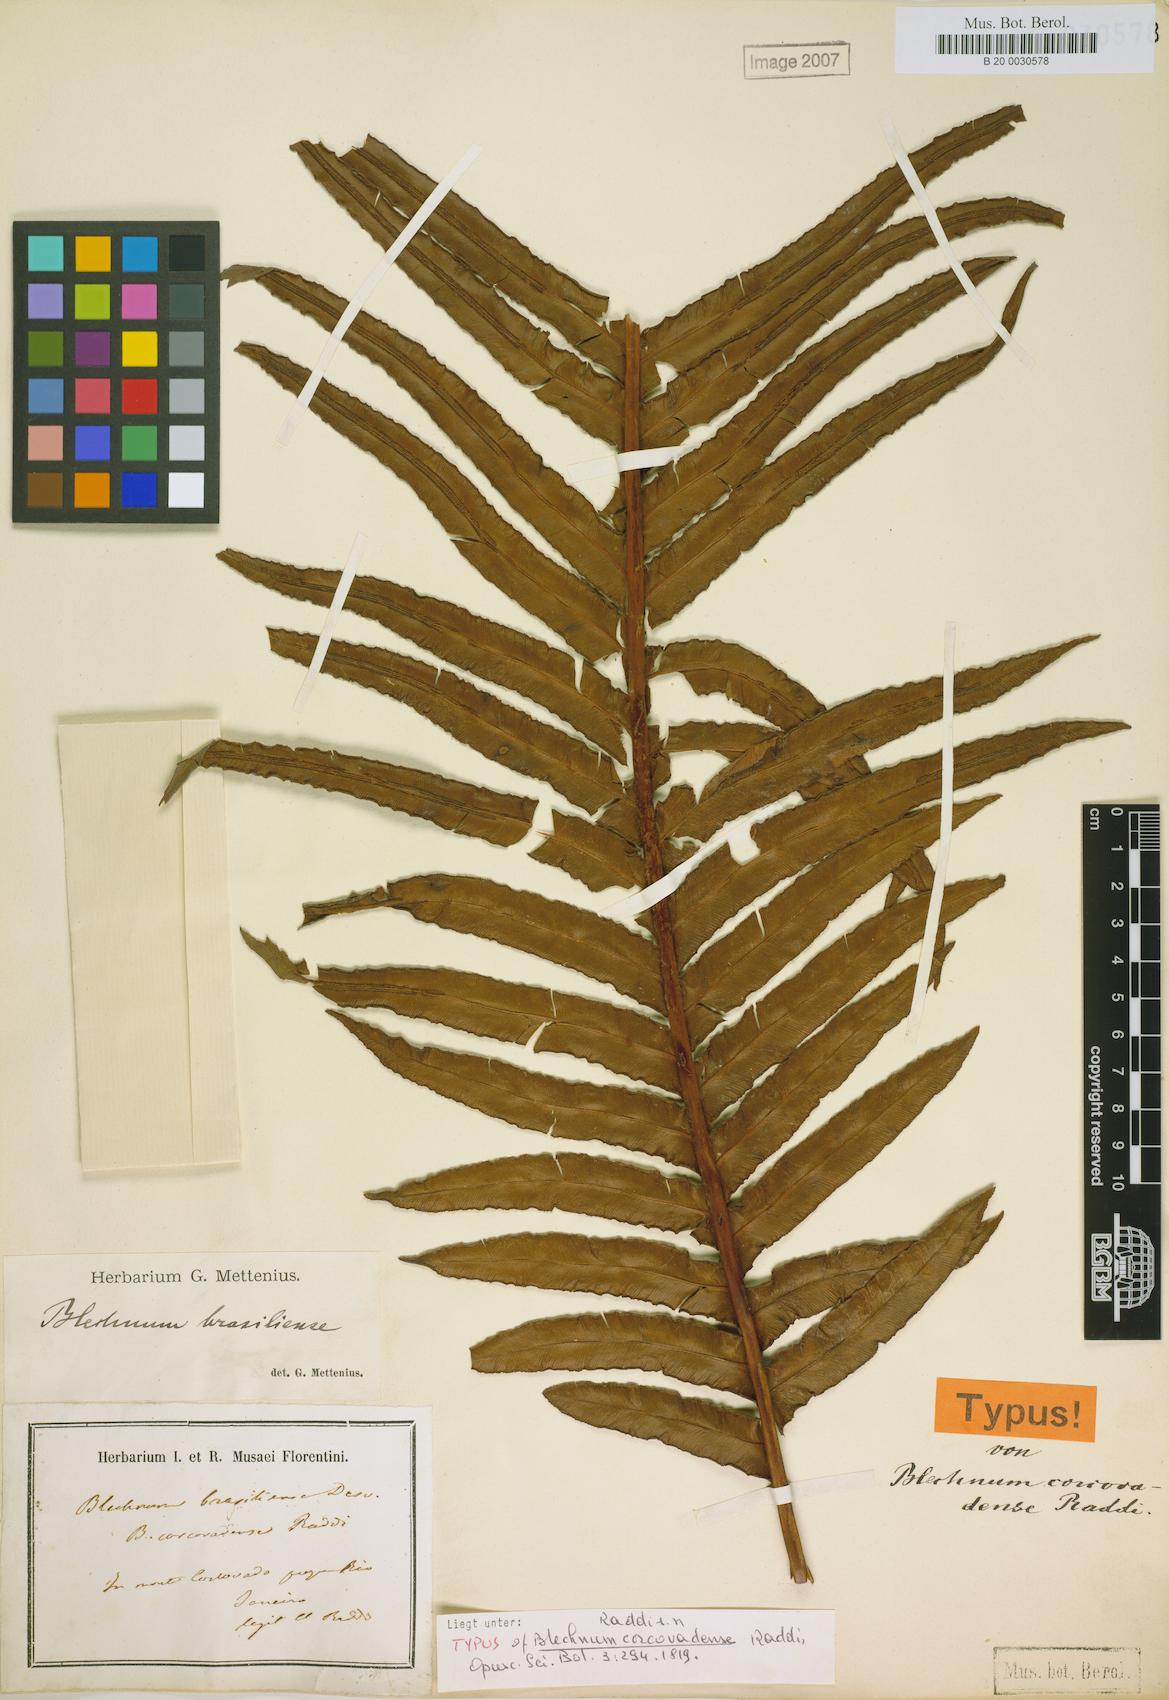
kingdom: Plantae
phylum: Tracheophyta
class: Polypodiopsida
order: Polypodiales
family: Blechnaceae
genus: Neoblechnum
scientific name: Neoblechnum brasiliense
